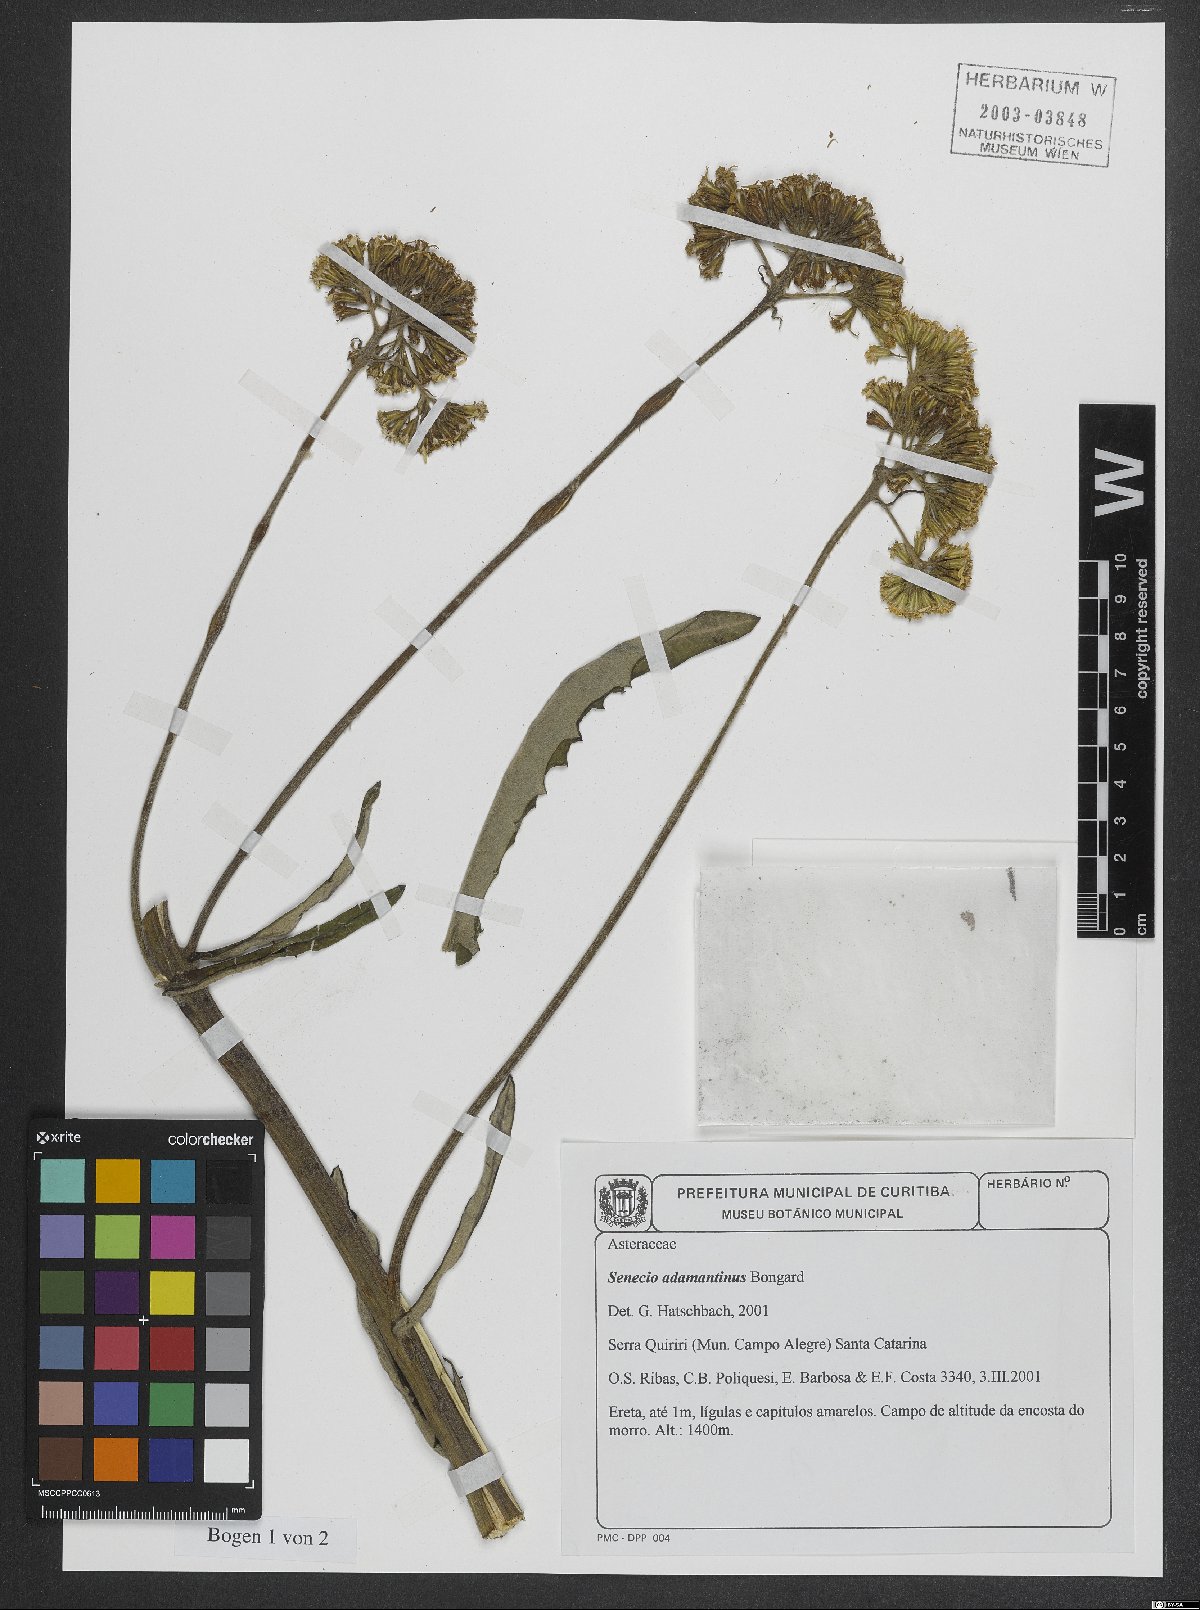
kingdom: Plantae
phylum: Tracheophyta
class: Magnoliopsida
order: Asterales
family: Asteraceae
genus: Senecio
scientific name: Senecio adamantinus
